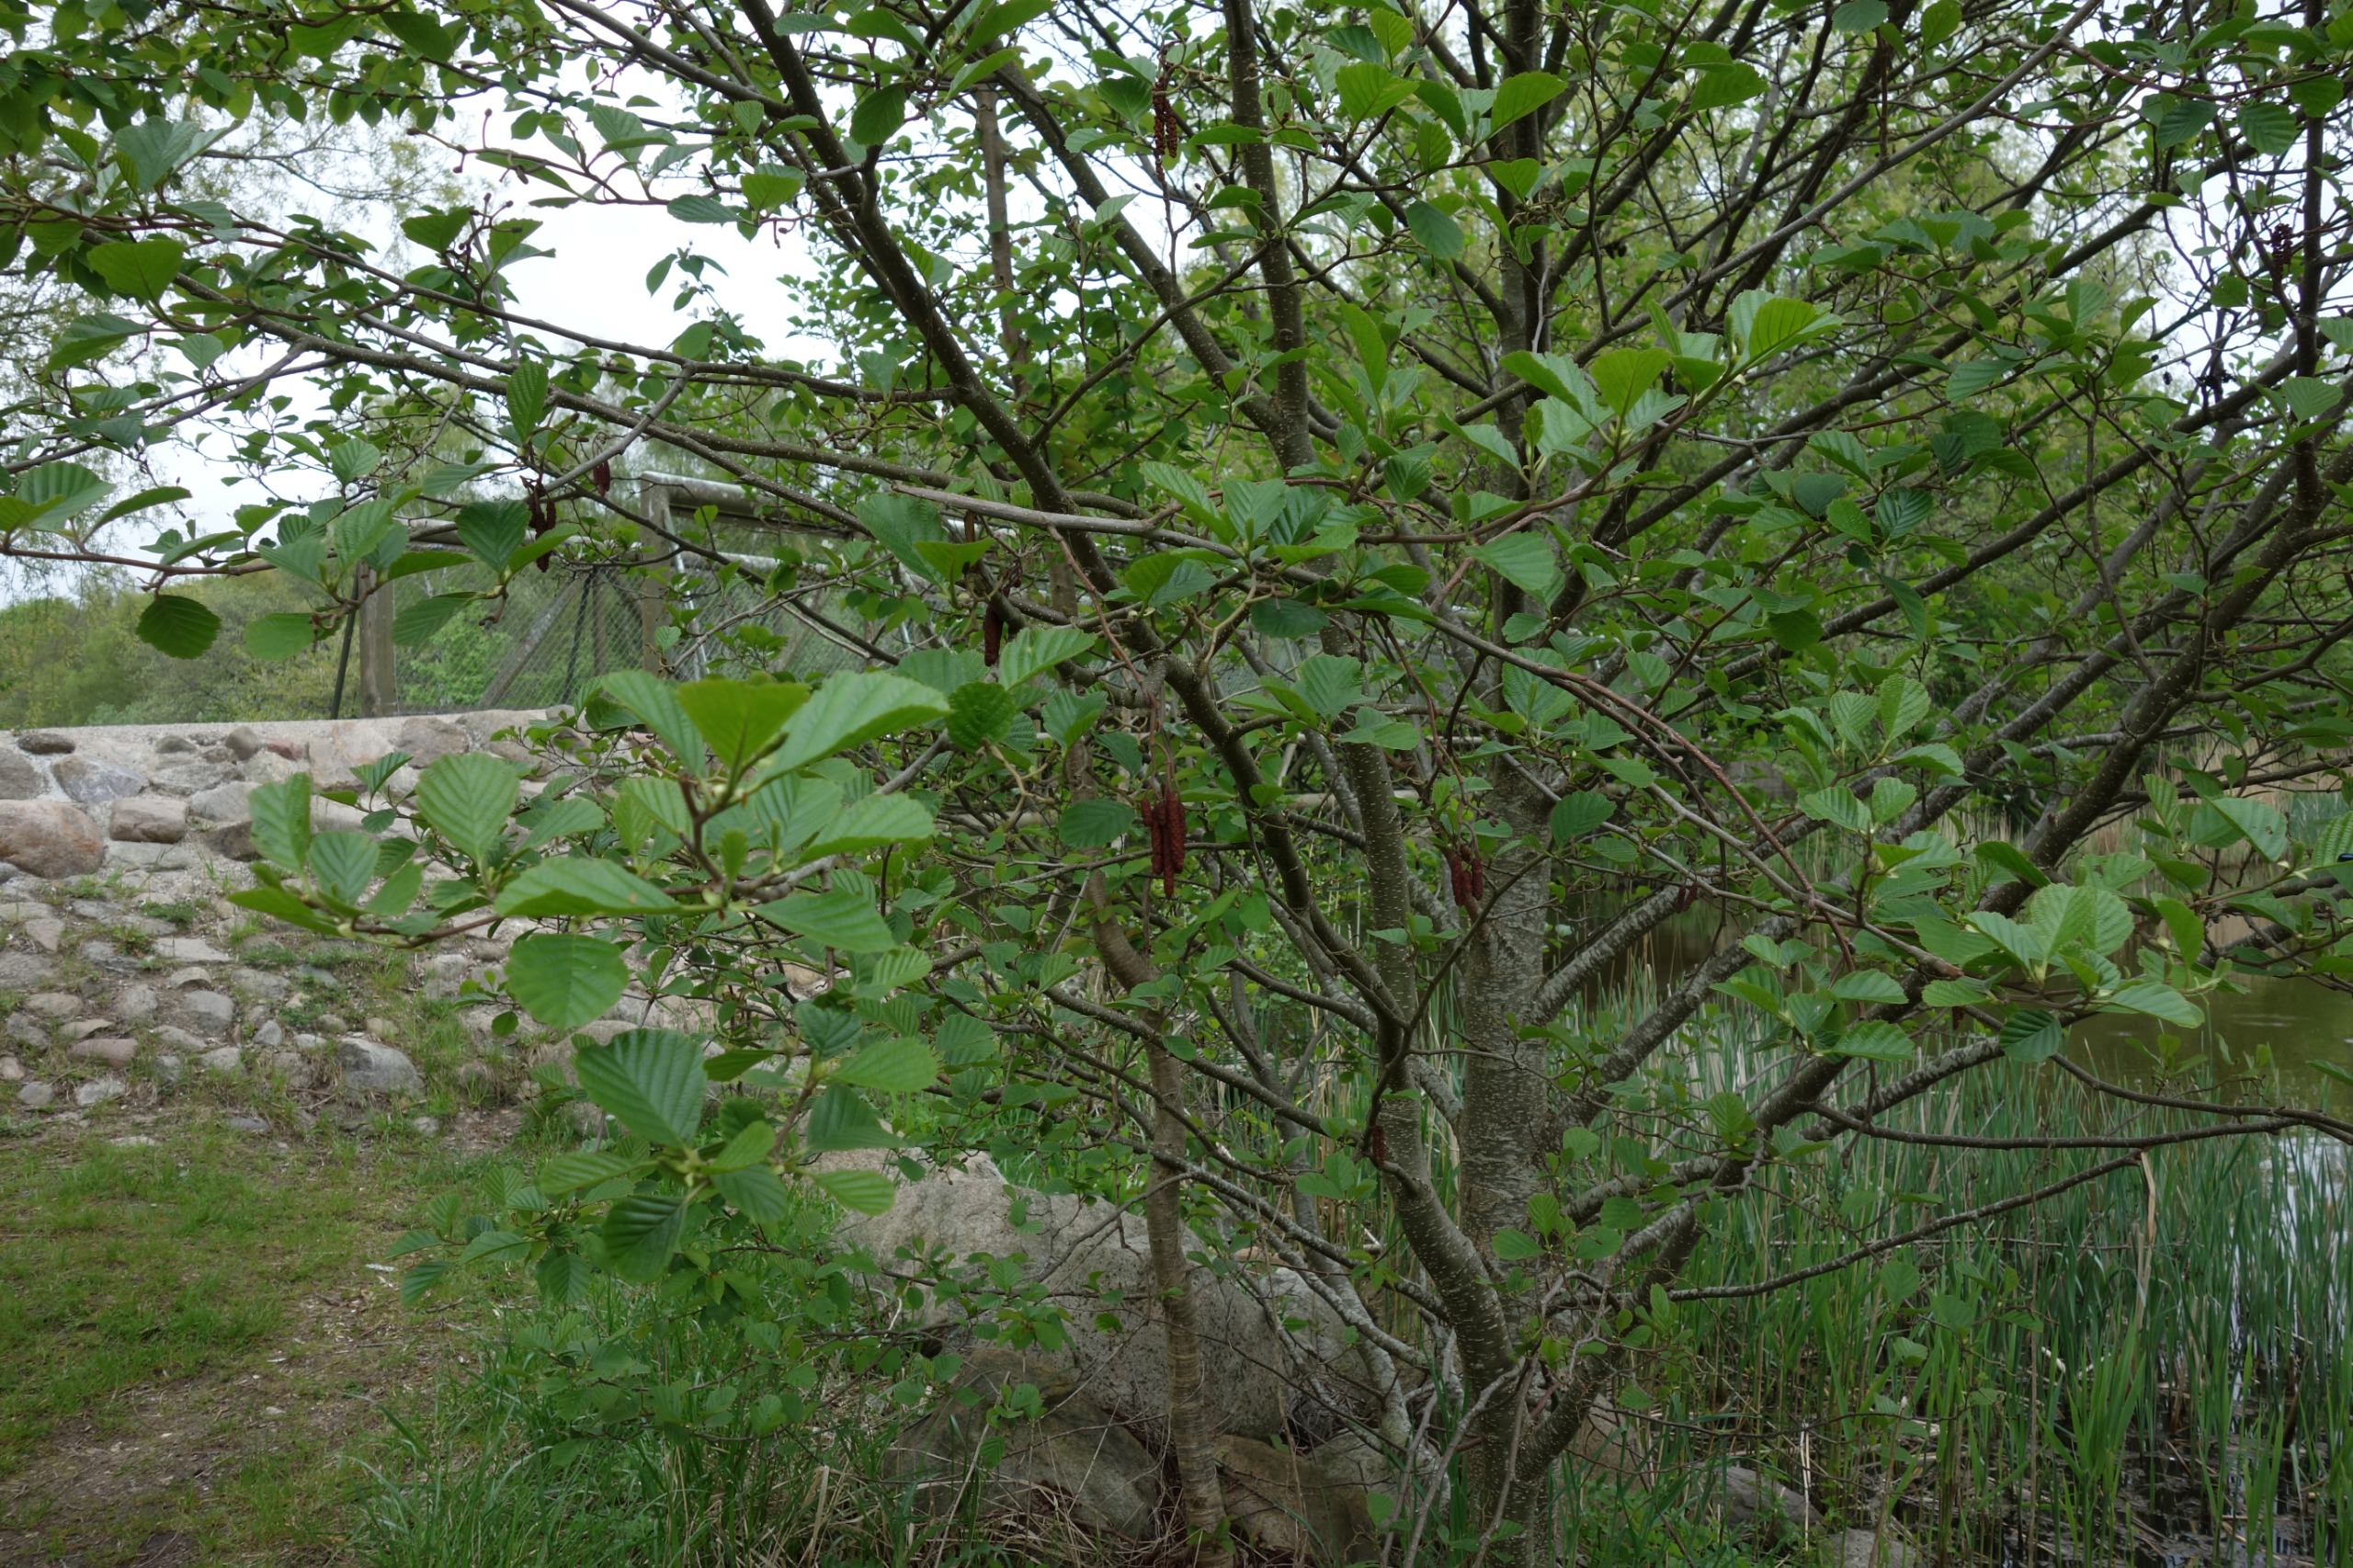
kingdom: Plantae
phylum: Tracheophyta
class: Magnoliopsida
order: Fagales
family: Betulaceae
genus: Alnus
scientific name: Alnus glutinosa
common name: Rød-el
